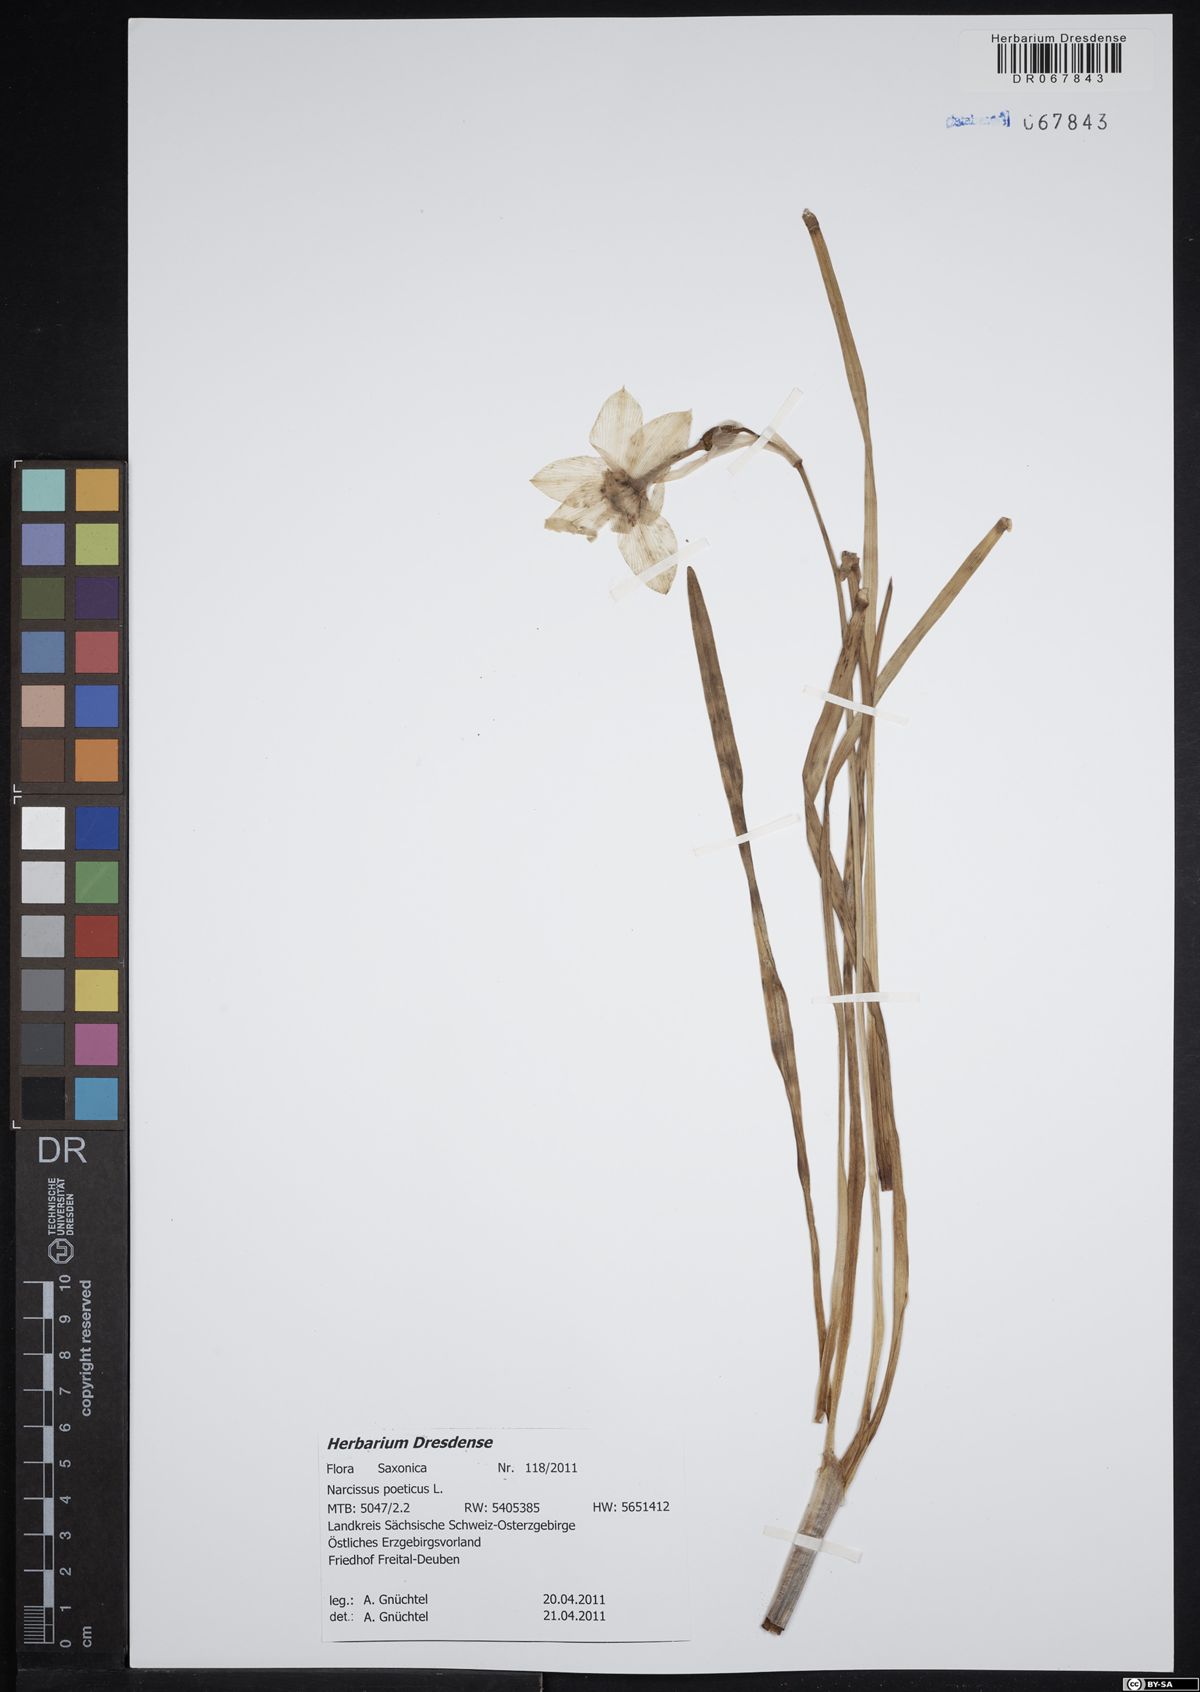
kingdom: Plantae
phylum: Tracheophyta
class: Liliopsida
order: Asparagales
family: Amaryllidaceae
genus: Narcissus
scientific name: Narcissus poeticus
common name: Pheasant's-eye daffodil
